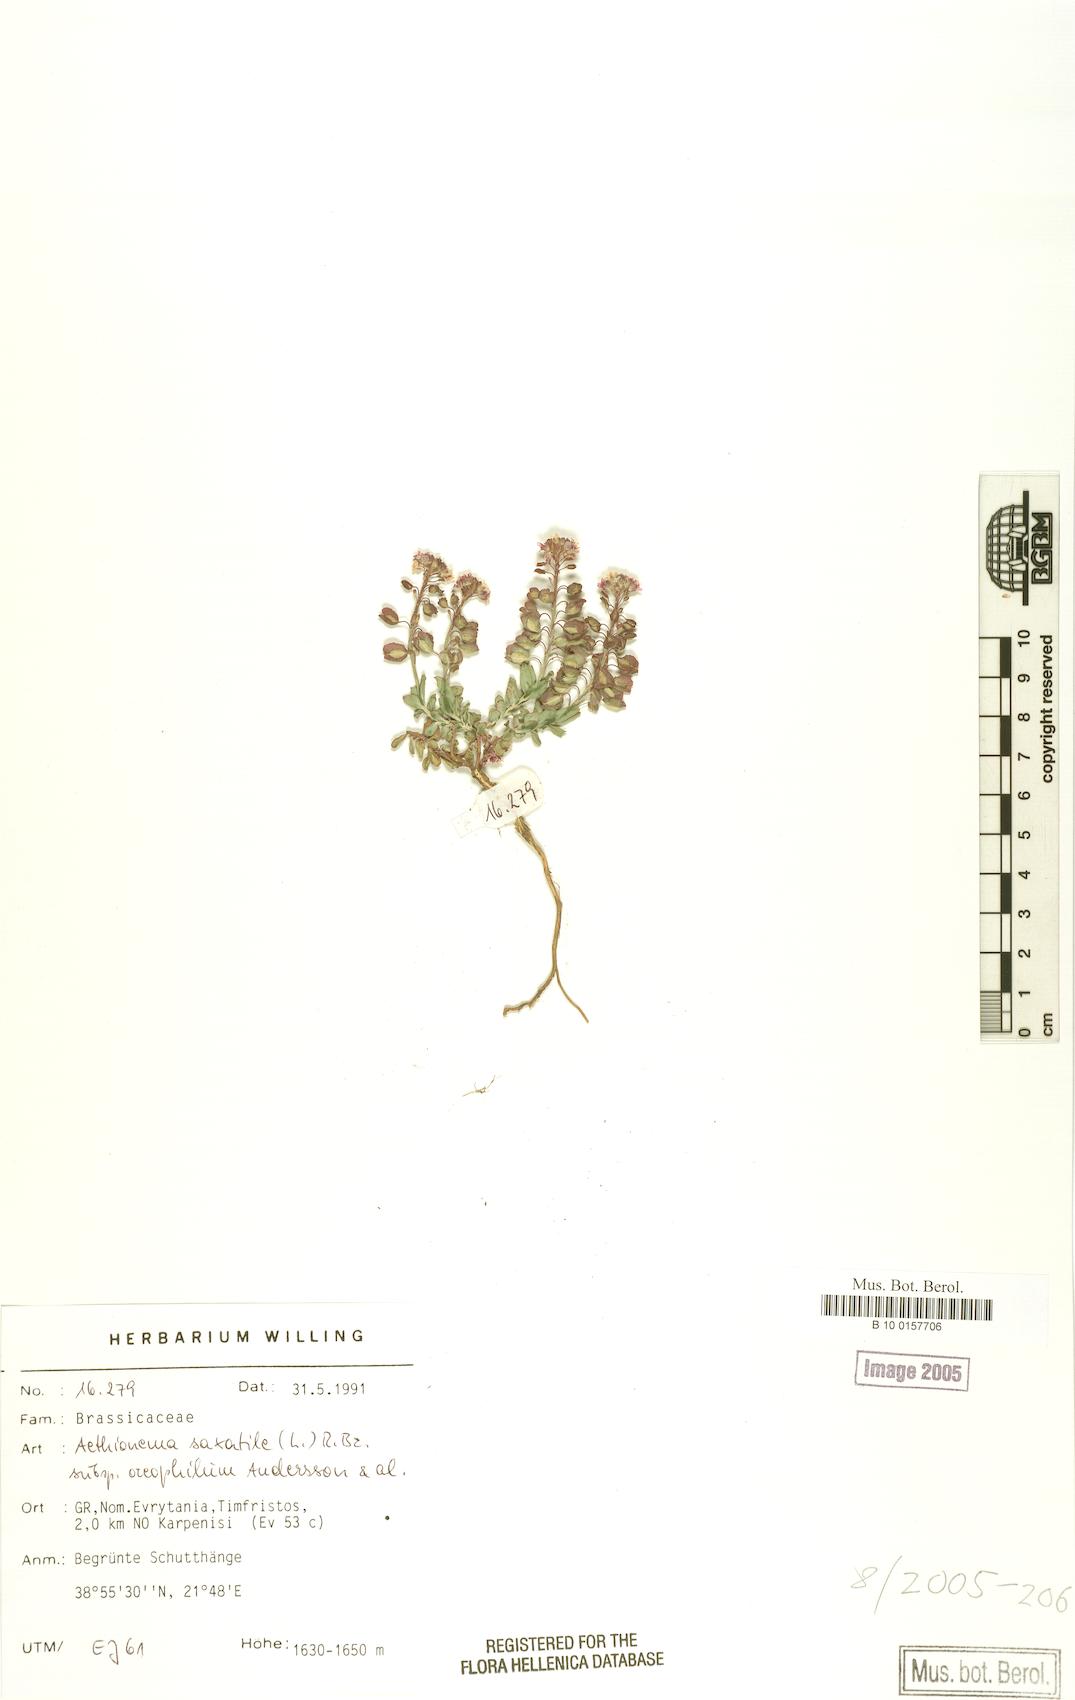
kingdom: Plantae
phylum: Tracheophyta
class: Magnoliopsida
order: Brassicales
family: Brassicaceae
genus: Aethionema
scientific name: Aethionema saxatile
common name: Burnt candytuft
